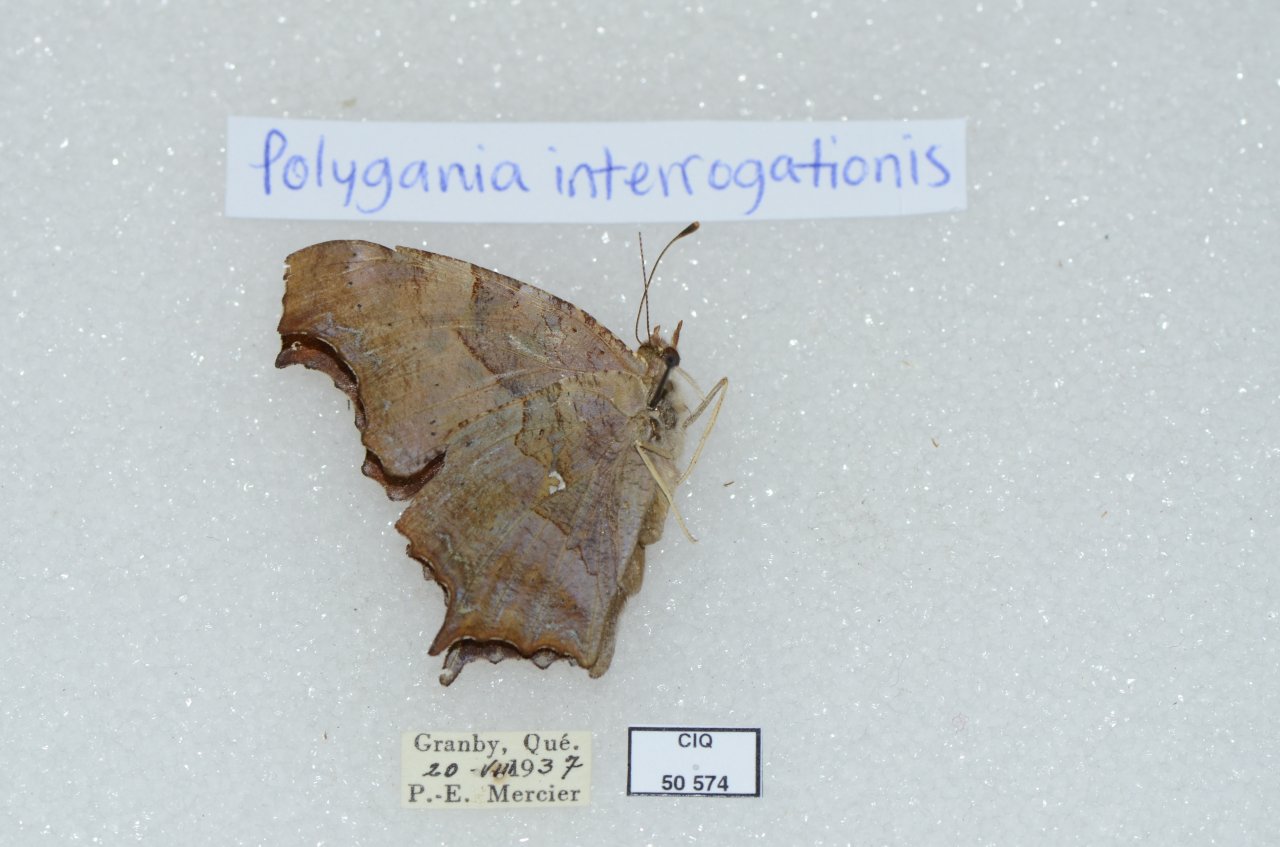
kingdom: Animalia
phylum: Arthropoda
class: Insecta
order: Lepidoptera
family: Nymphalidae
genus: Polygonia
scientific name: Polygonia interrogationis
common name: Question Mark
